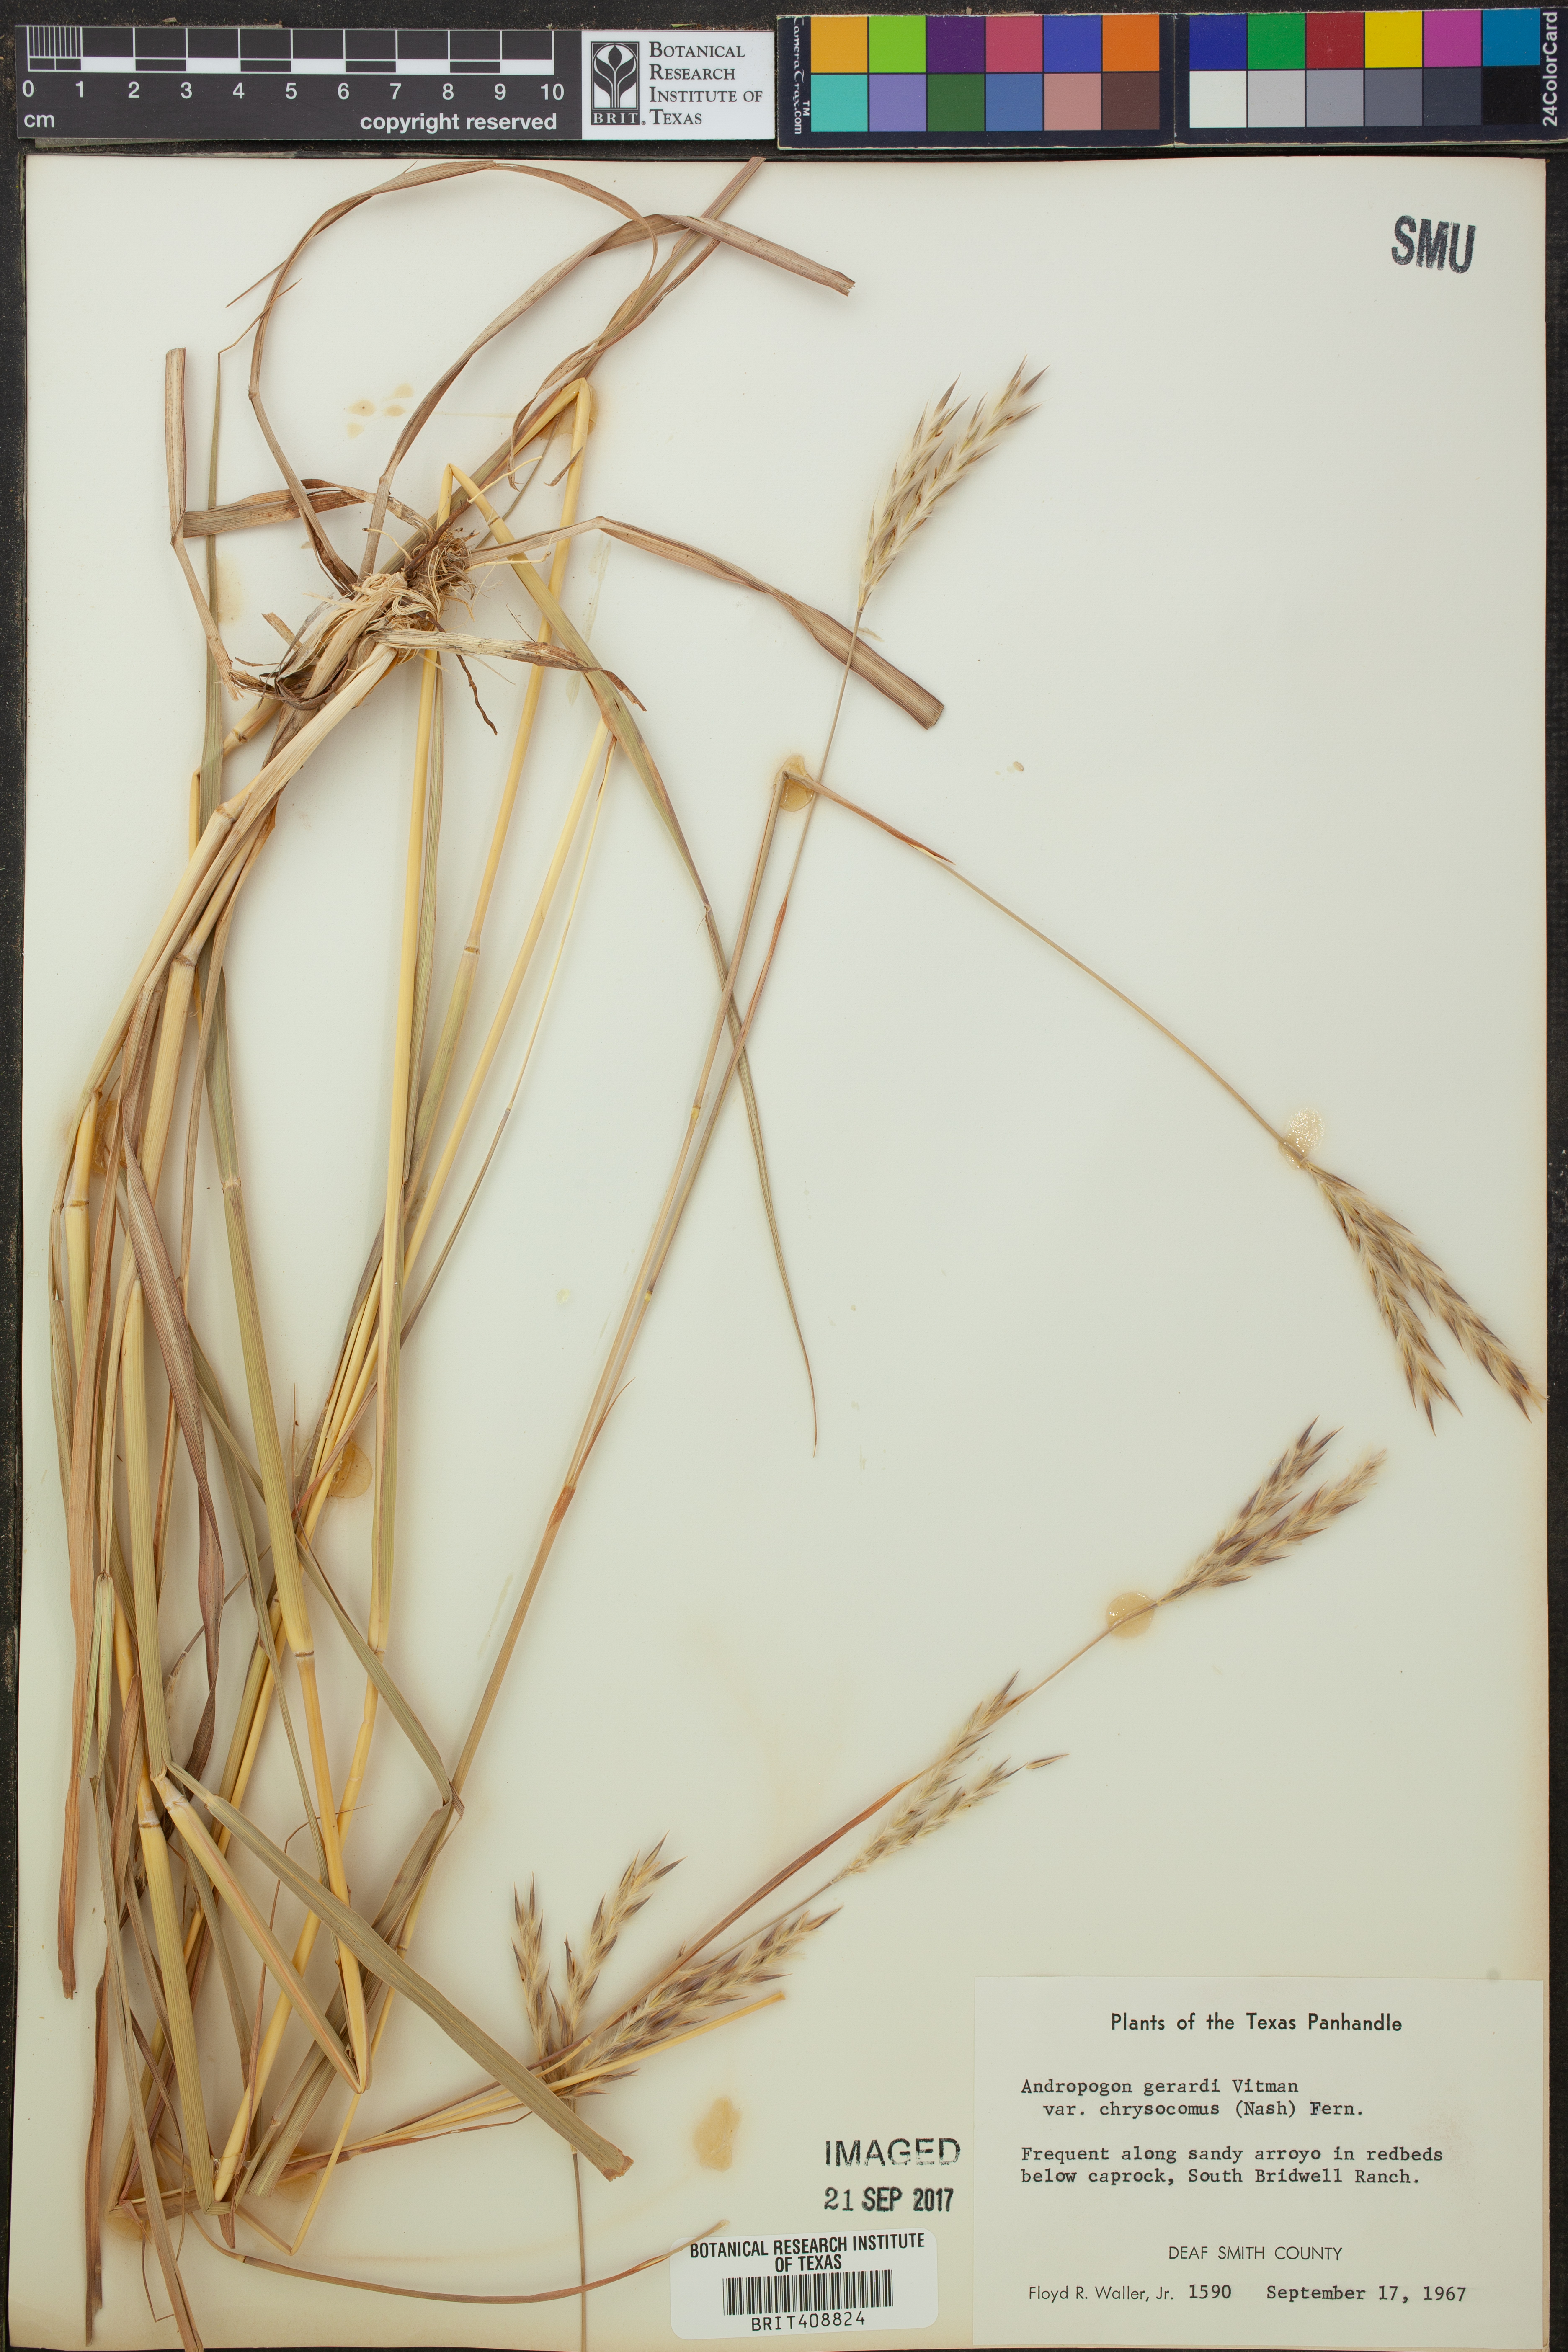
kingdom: Plantae
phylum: Tracheophyta
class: Liliopsida
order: Poales
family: Poaceae
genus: Andropogon
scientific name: Andropogon gerardi
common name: Big bluestem
